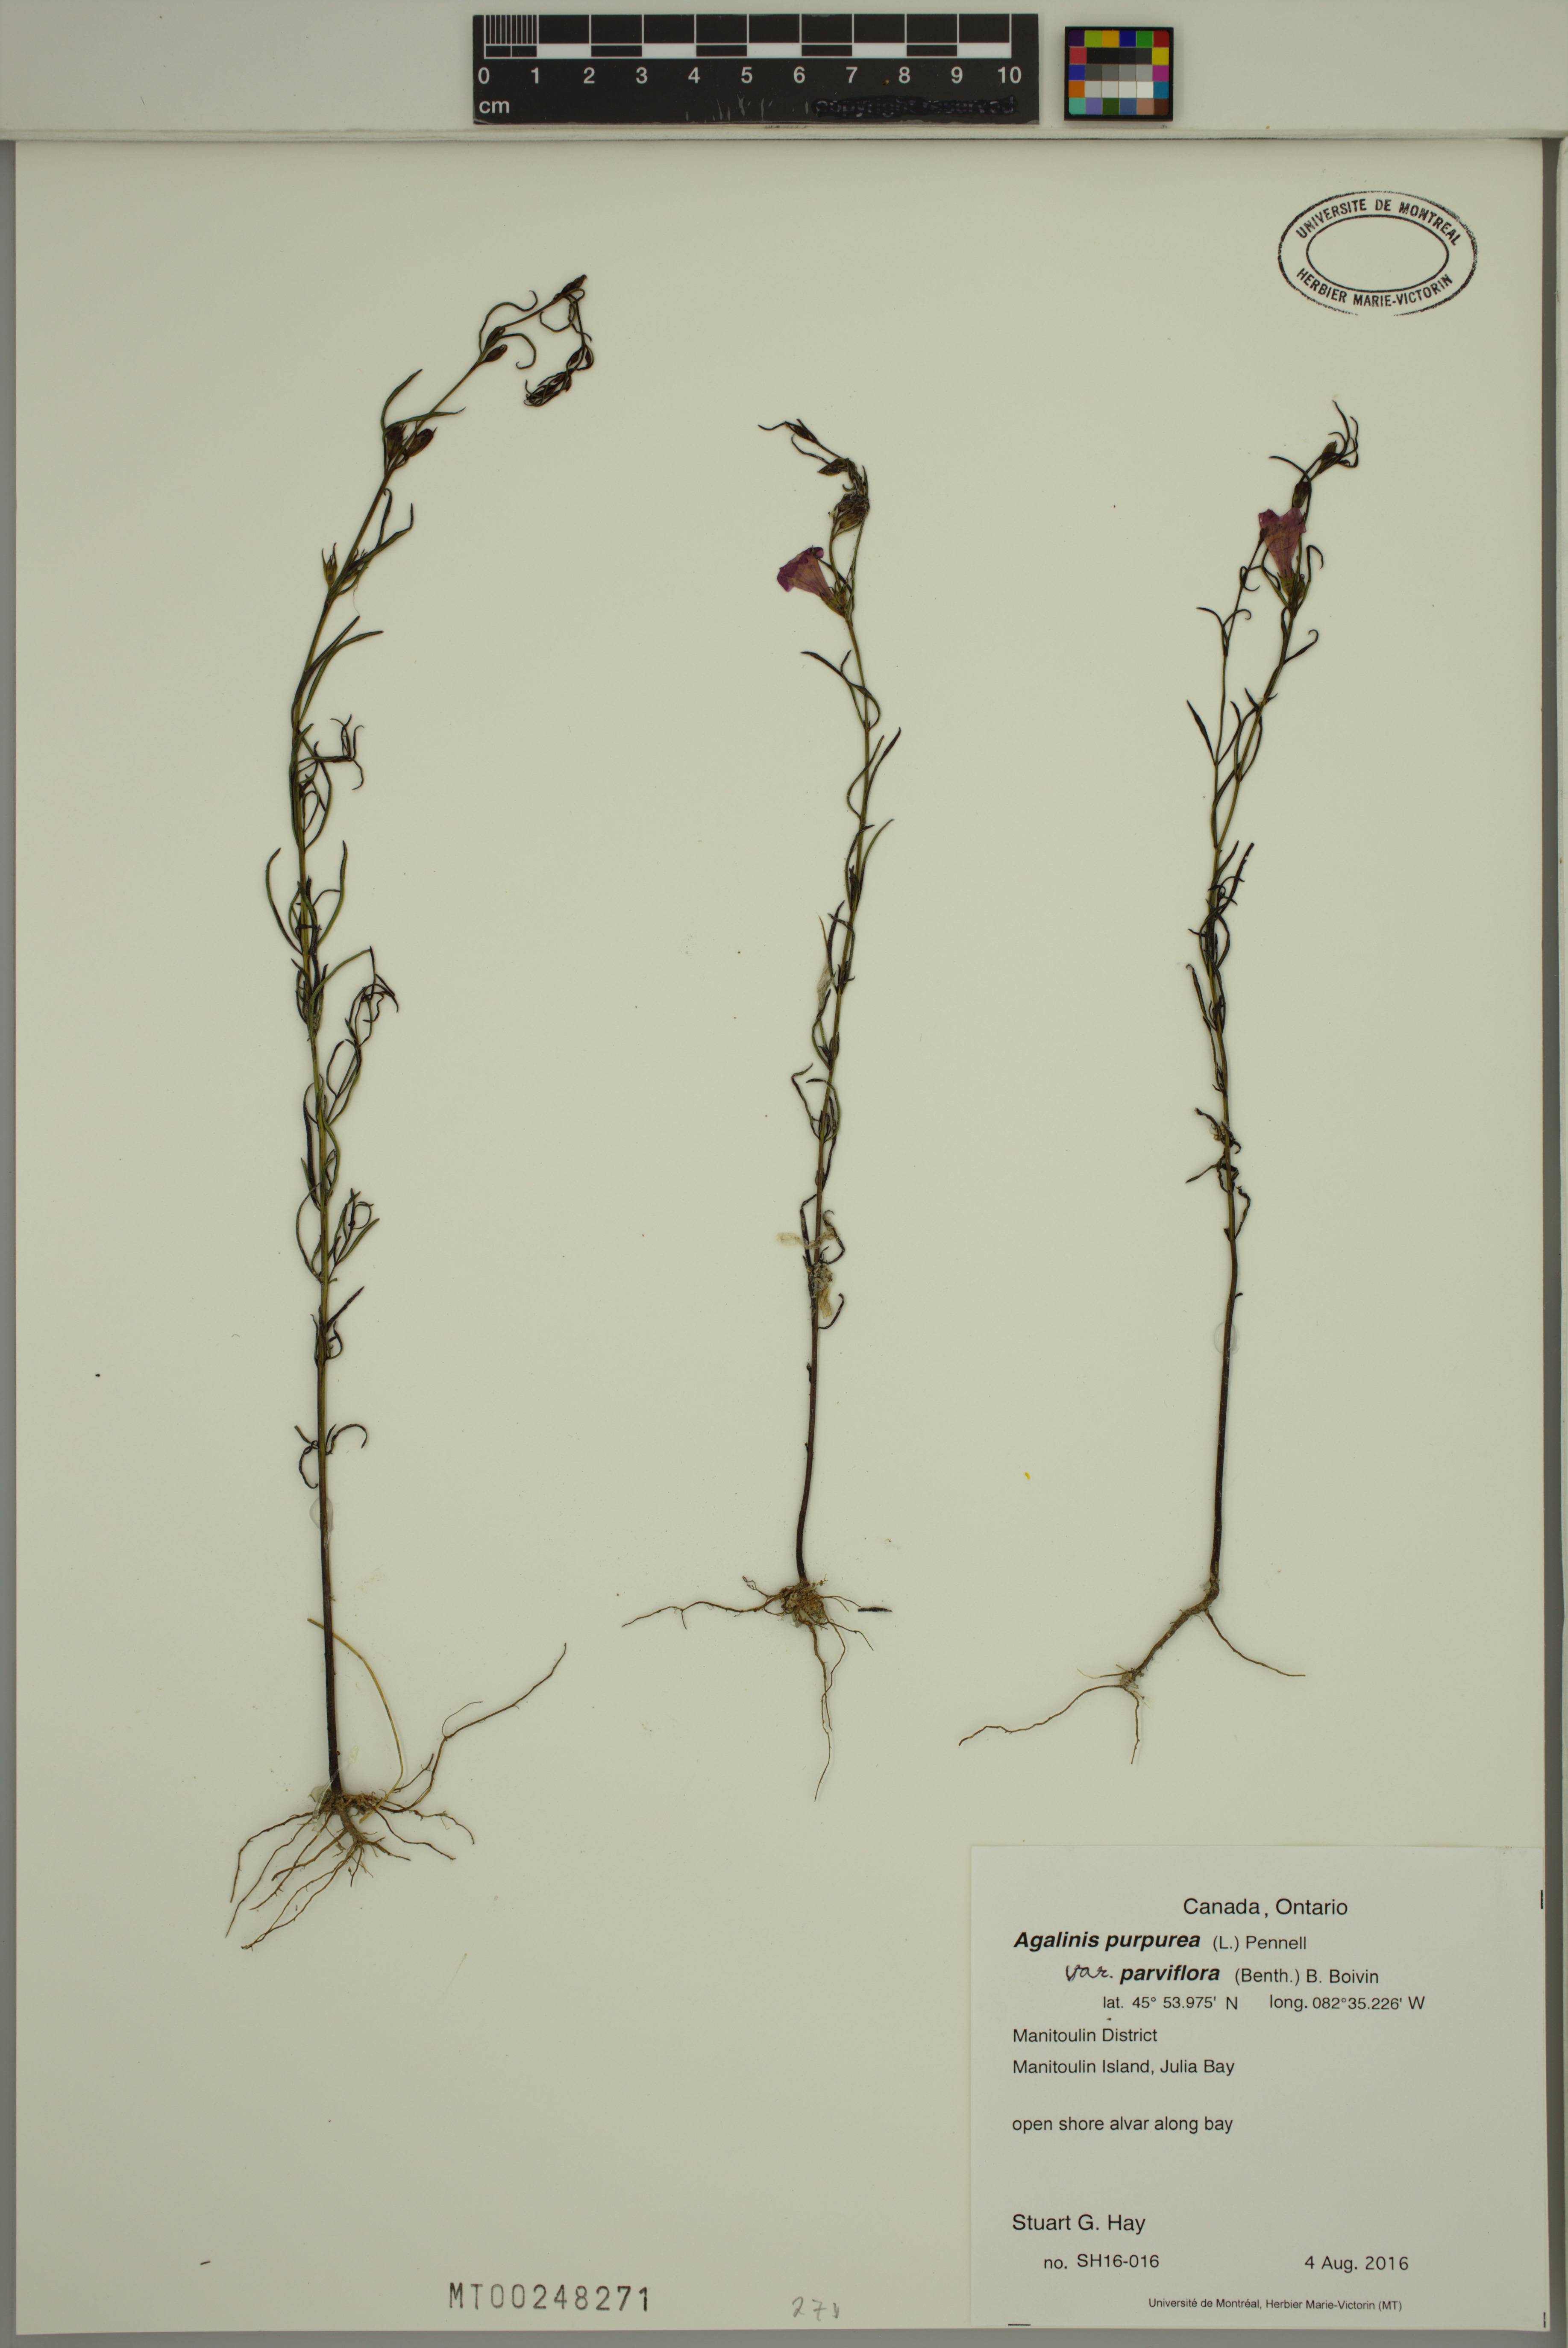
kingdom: Plantae
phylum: Tracheophyta
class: Magnoliopsida
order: Lamiales
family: Orobanchaceae
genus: Agalinis
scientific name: Agalinis purpurea
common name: Purple false foxglove
